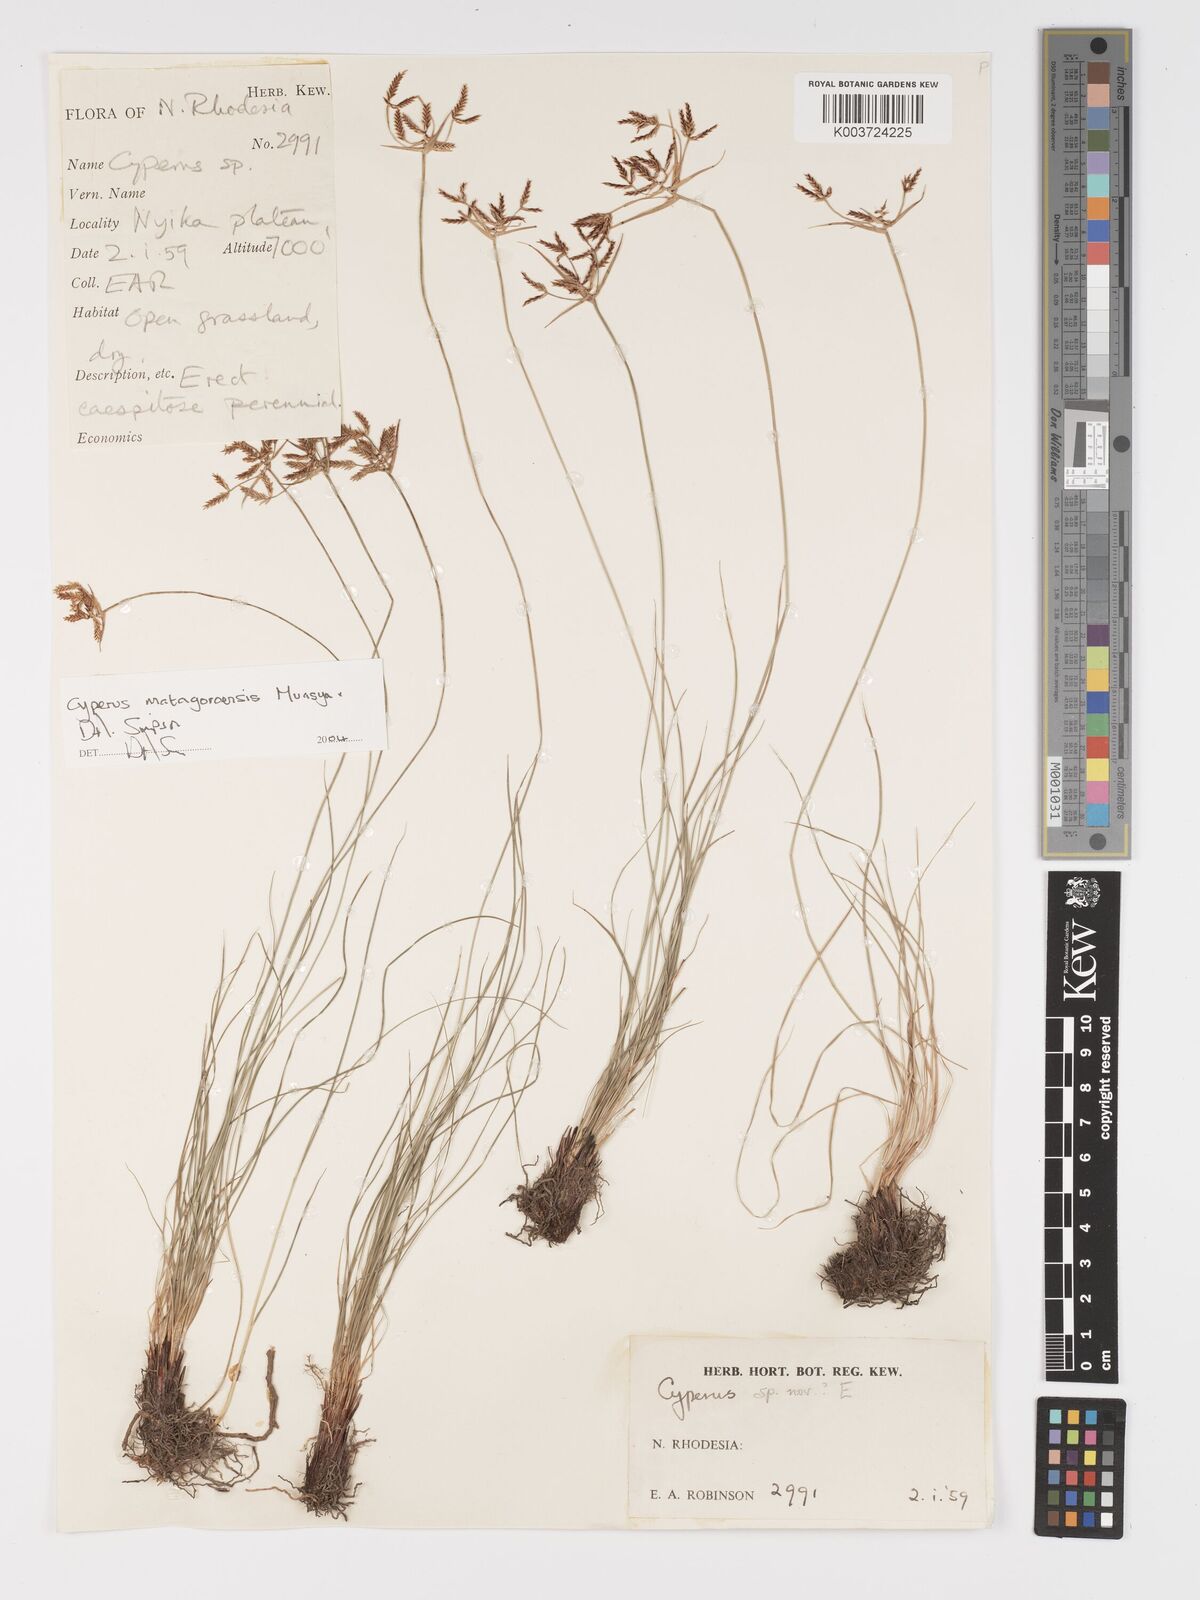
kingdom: Plantae
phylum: Tracheophyta
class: Liliopsida
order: Poales
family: Cyperaceae
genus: Cyperus
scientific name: Cyperus matagoroensis
